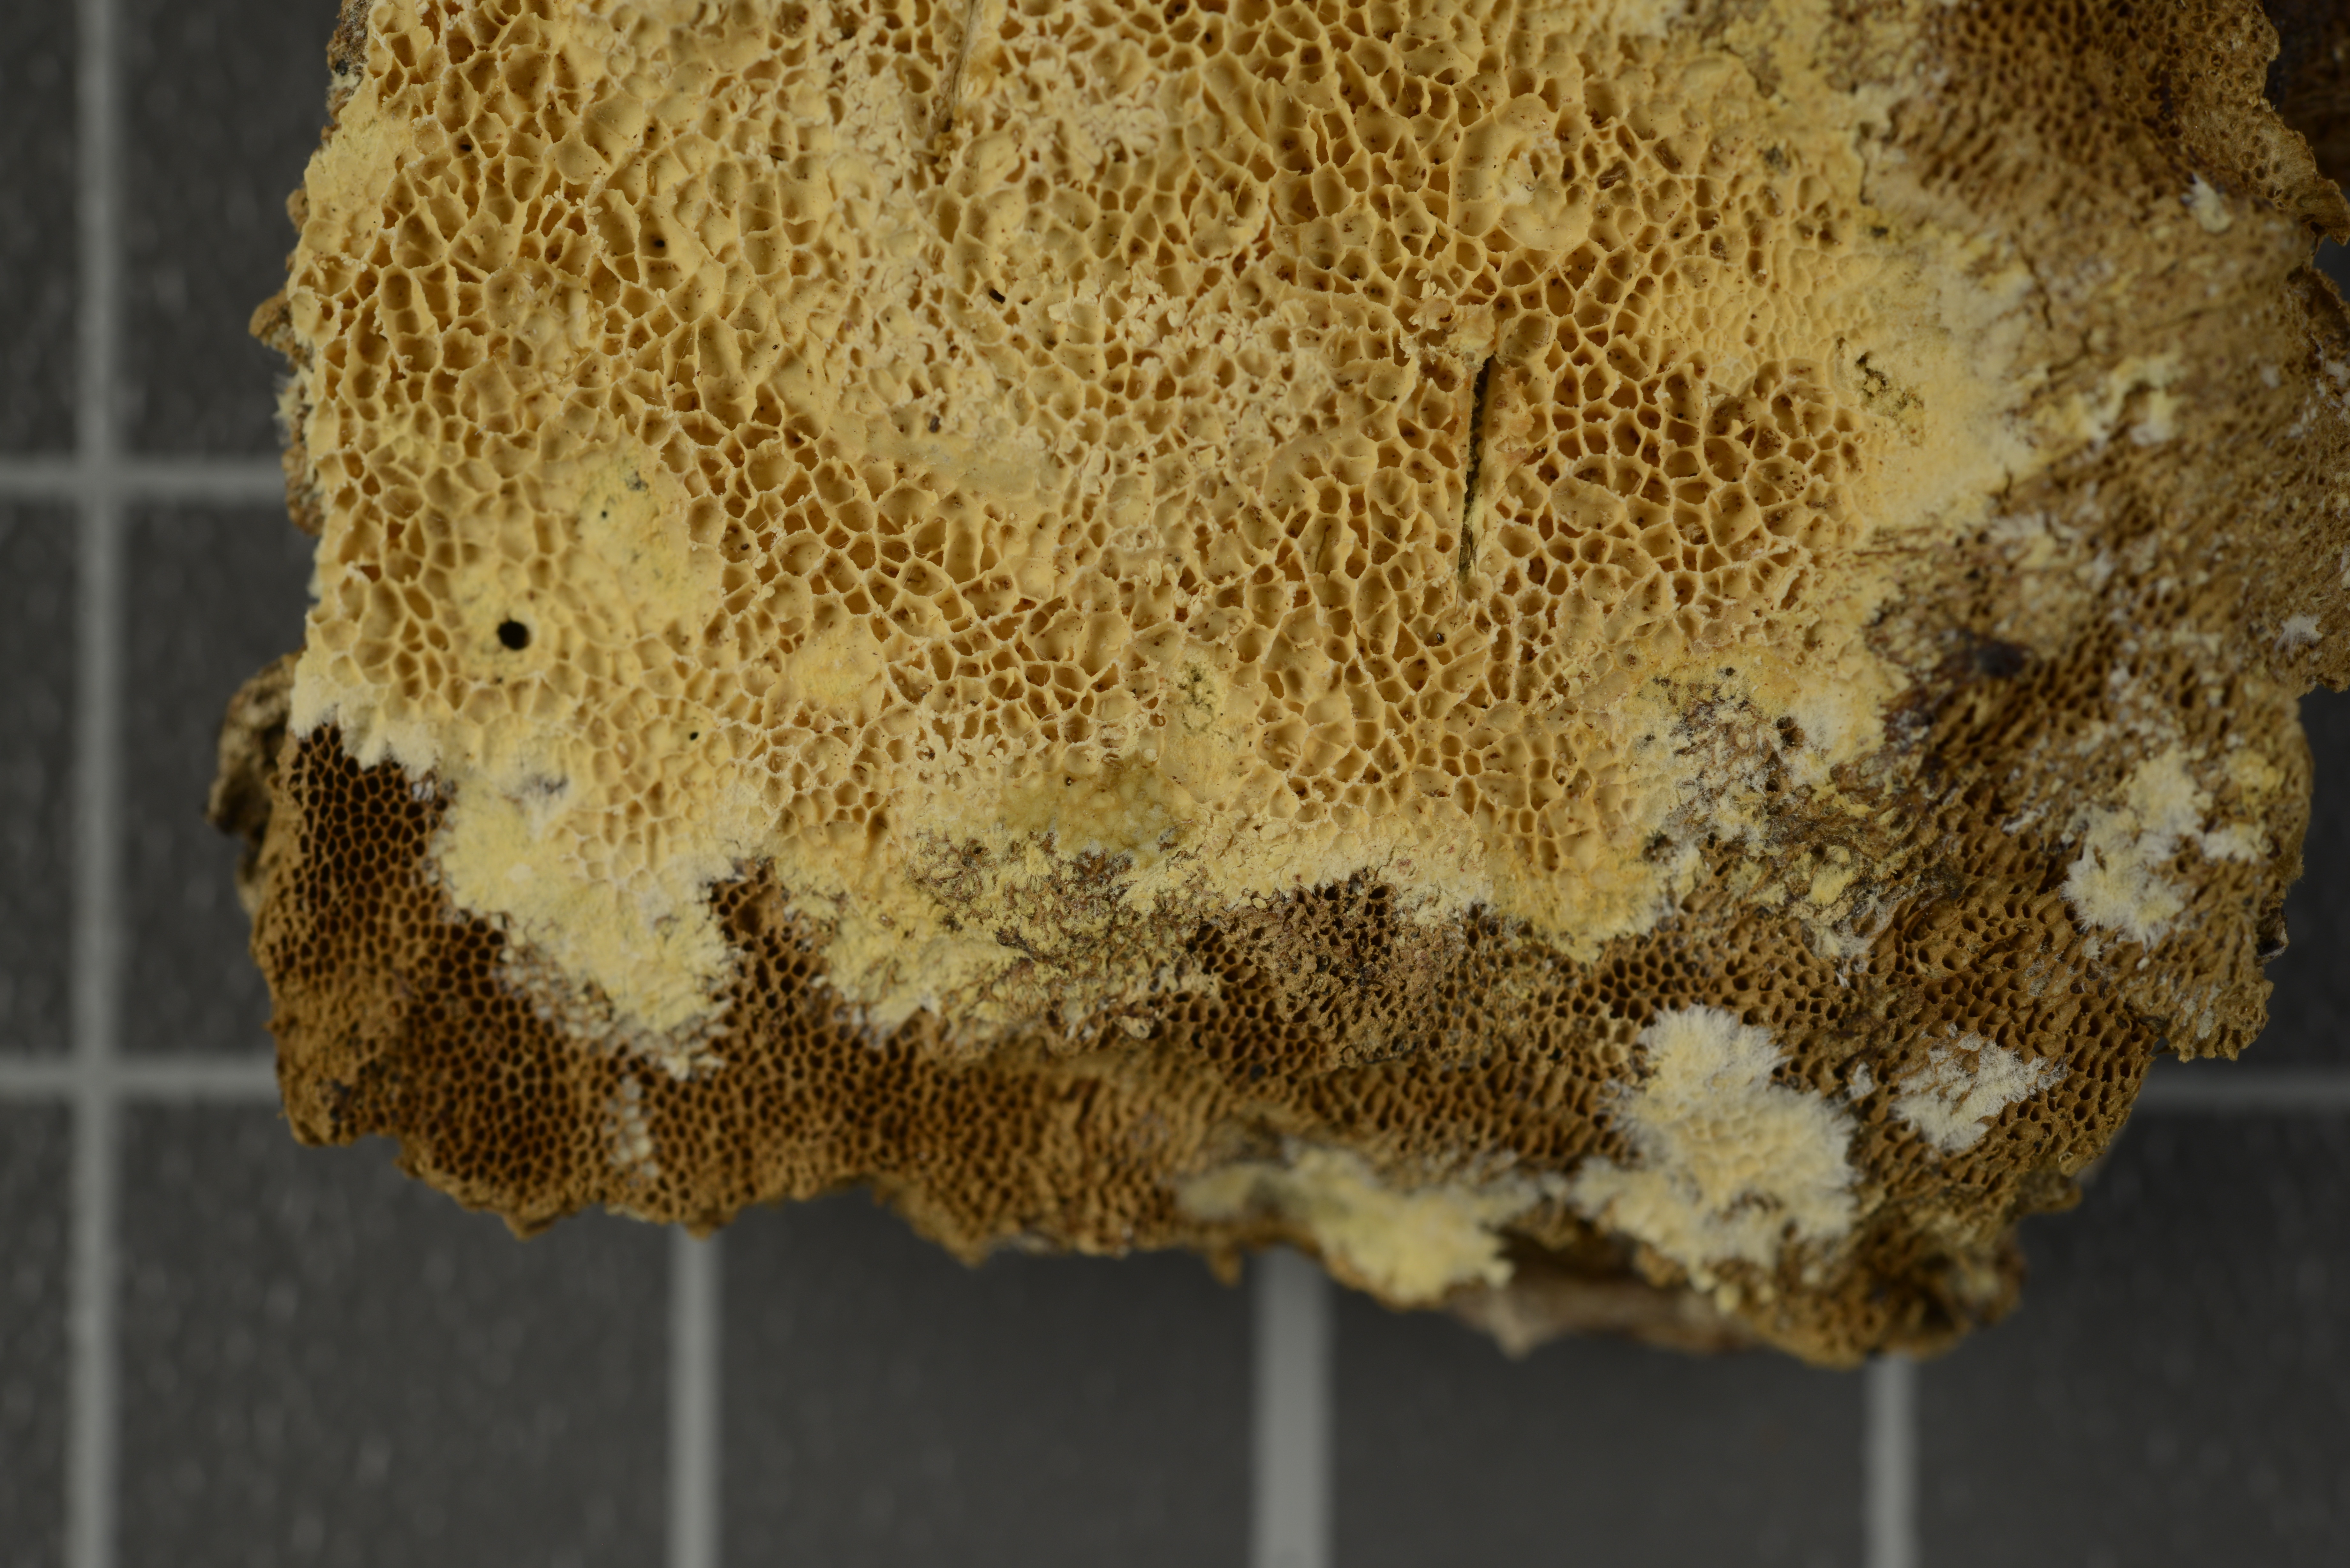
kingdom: Fungi
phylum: Basidiomycota
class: Agaricomycetes
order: Polyporales
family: Irpicaceae
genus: Ceriporia
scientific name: Ceriporia citrina
